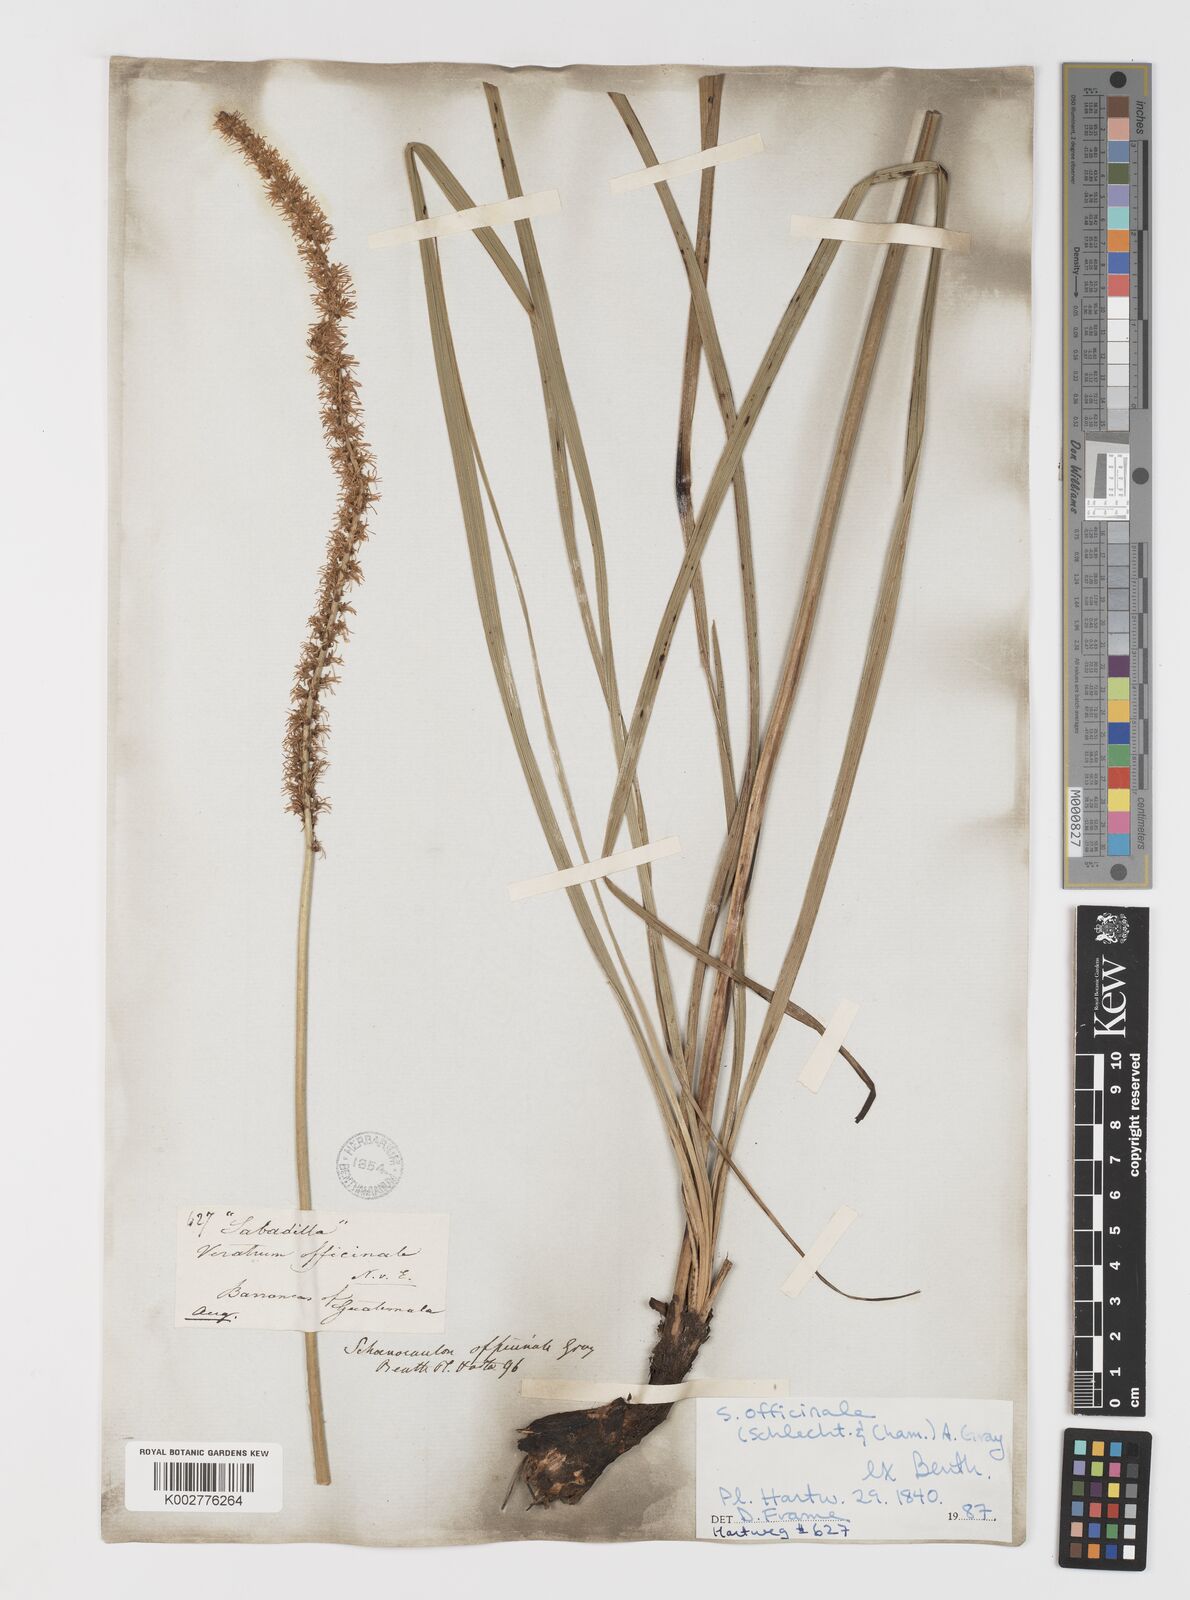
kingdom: Plantae
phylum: Tracheophyta
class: Liliopsida
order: Liliales
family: Melanthiaceae
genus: Schoenocaulon
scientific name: Schoenocaulon officinale
